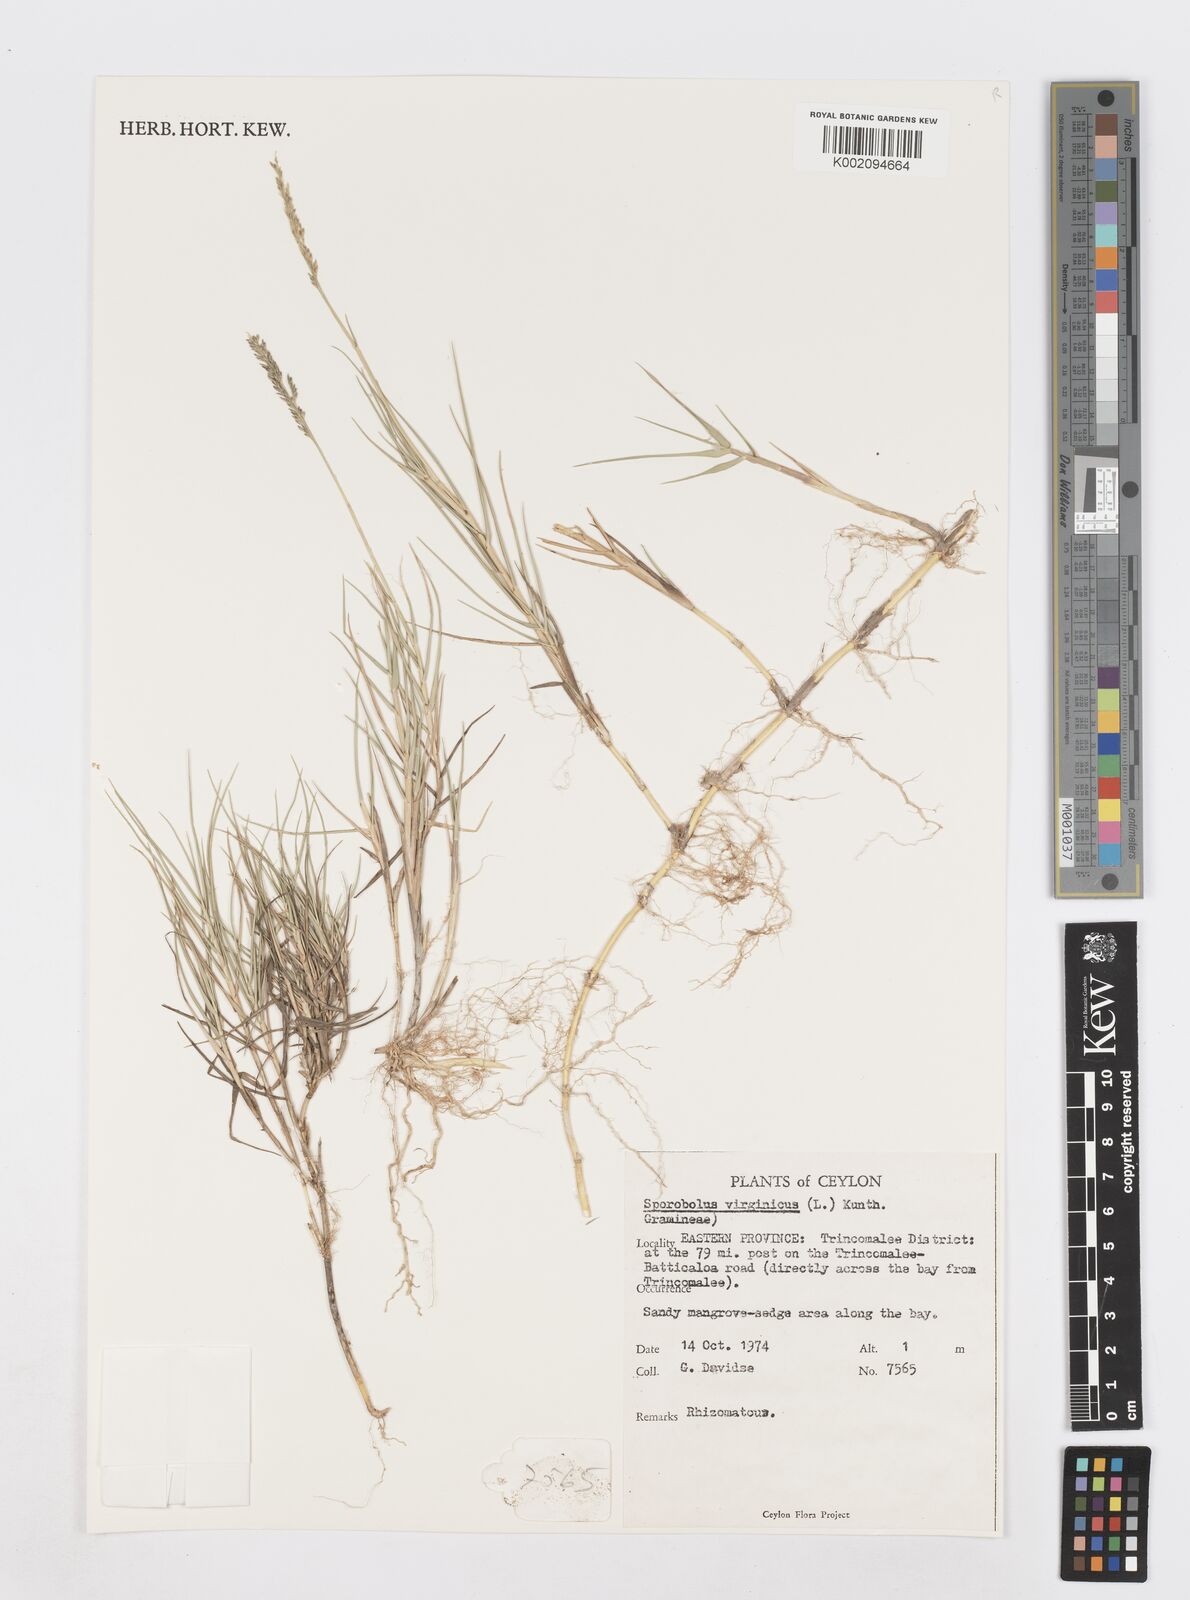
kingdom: Plantae
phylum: Tracheophyta
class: Liliopsida
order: Poales
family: Poaceae
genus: Sporobolus
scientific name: Sporobolus virginicus
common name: Beach dropseed
